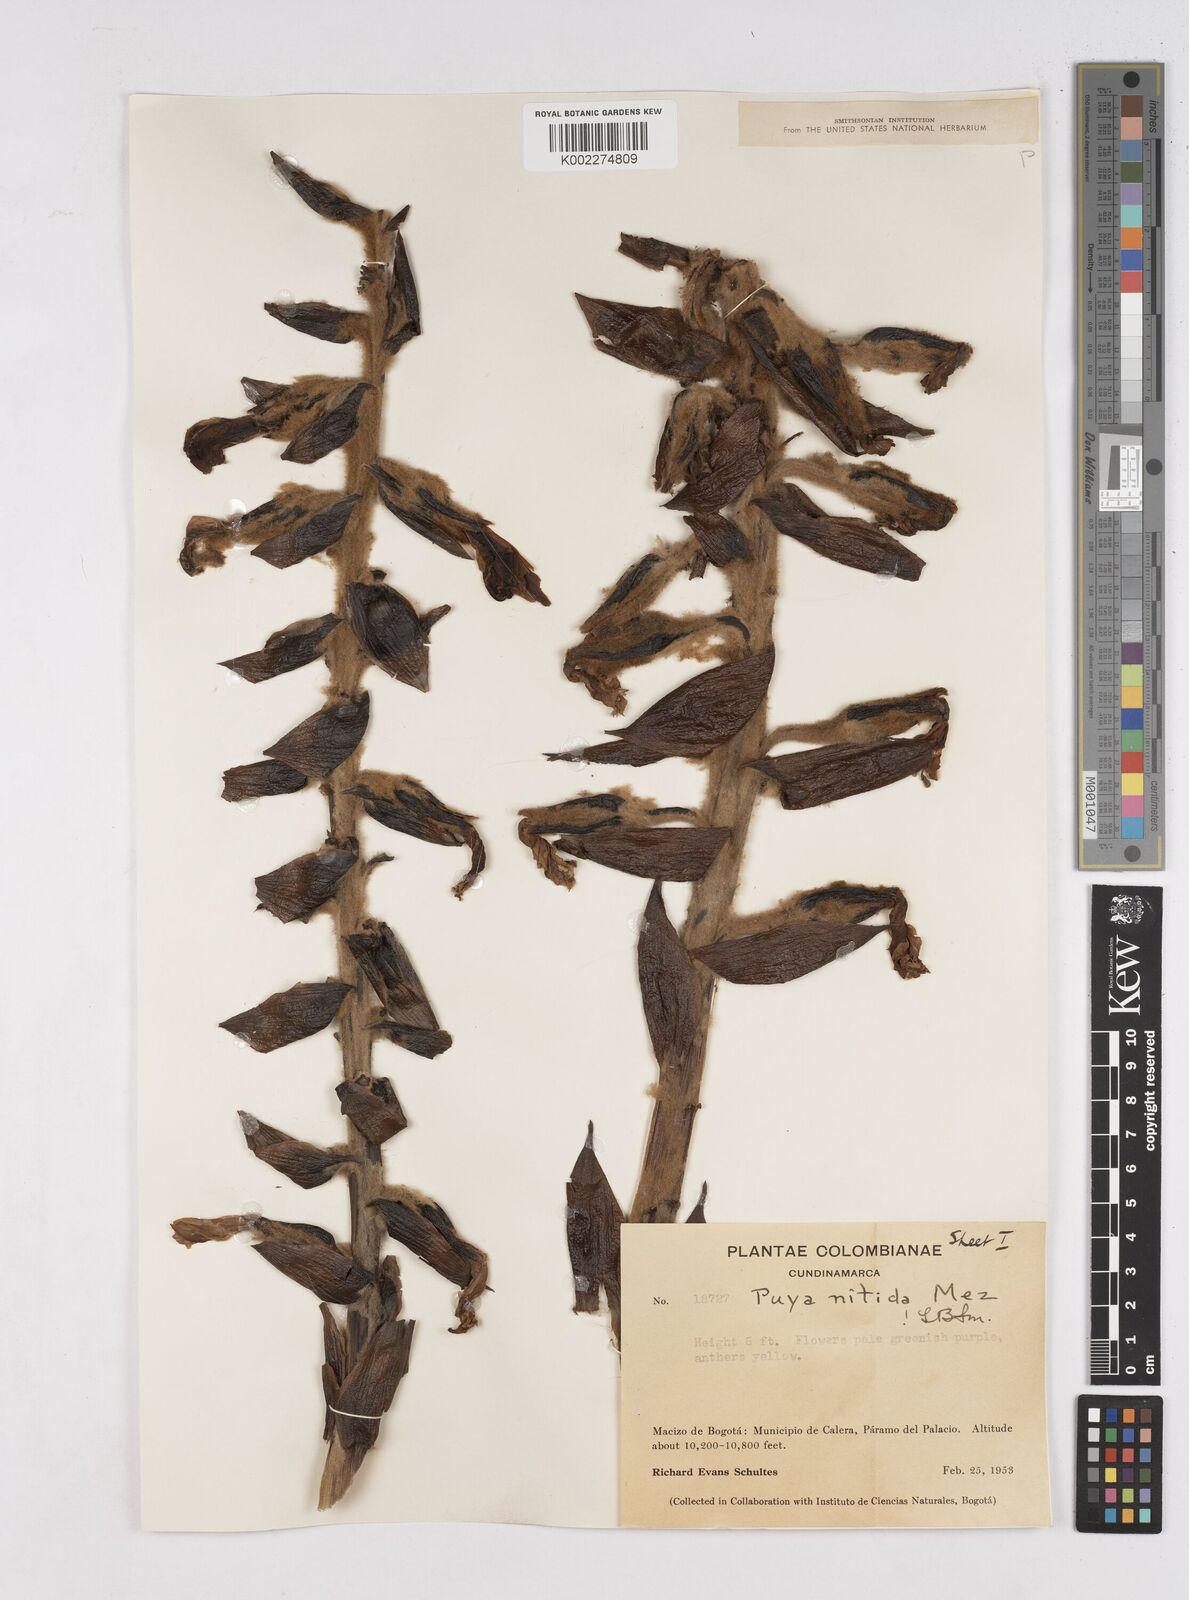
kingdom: Plantae
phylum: Tracheophyta
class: Liliopsida
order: Poales
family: Bromeliaceae
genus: Puya
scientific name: Puya nitida
